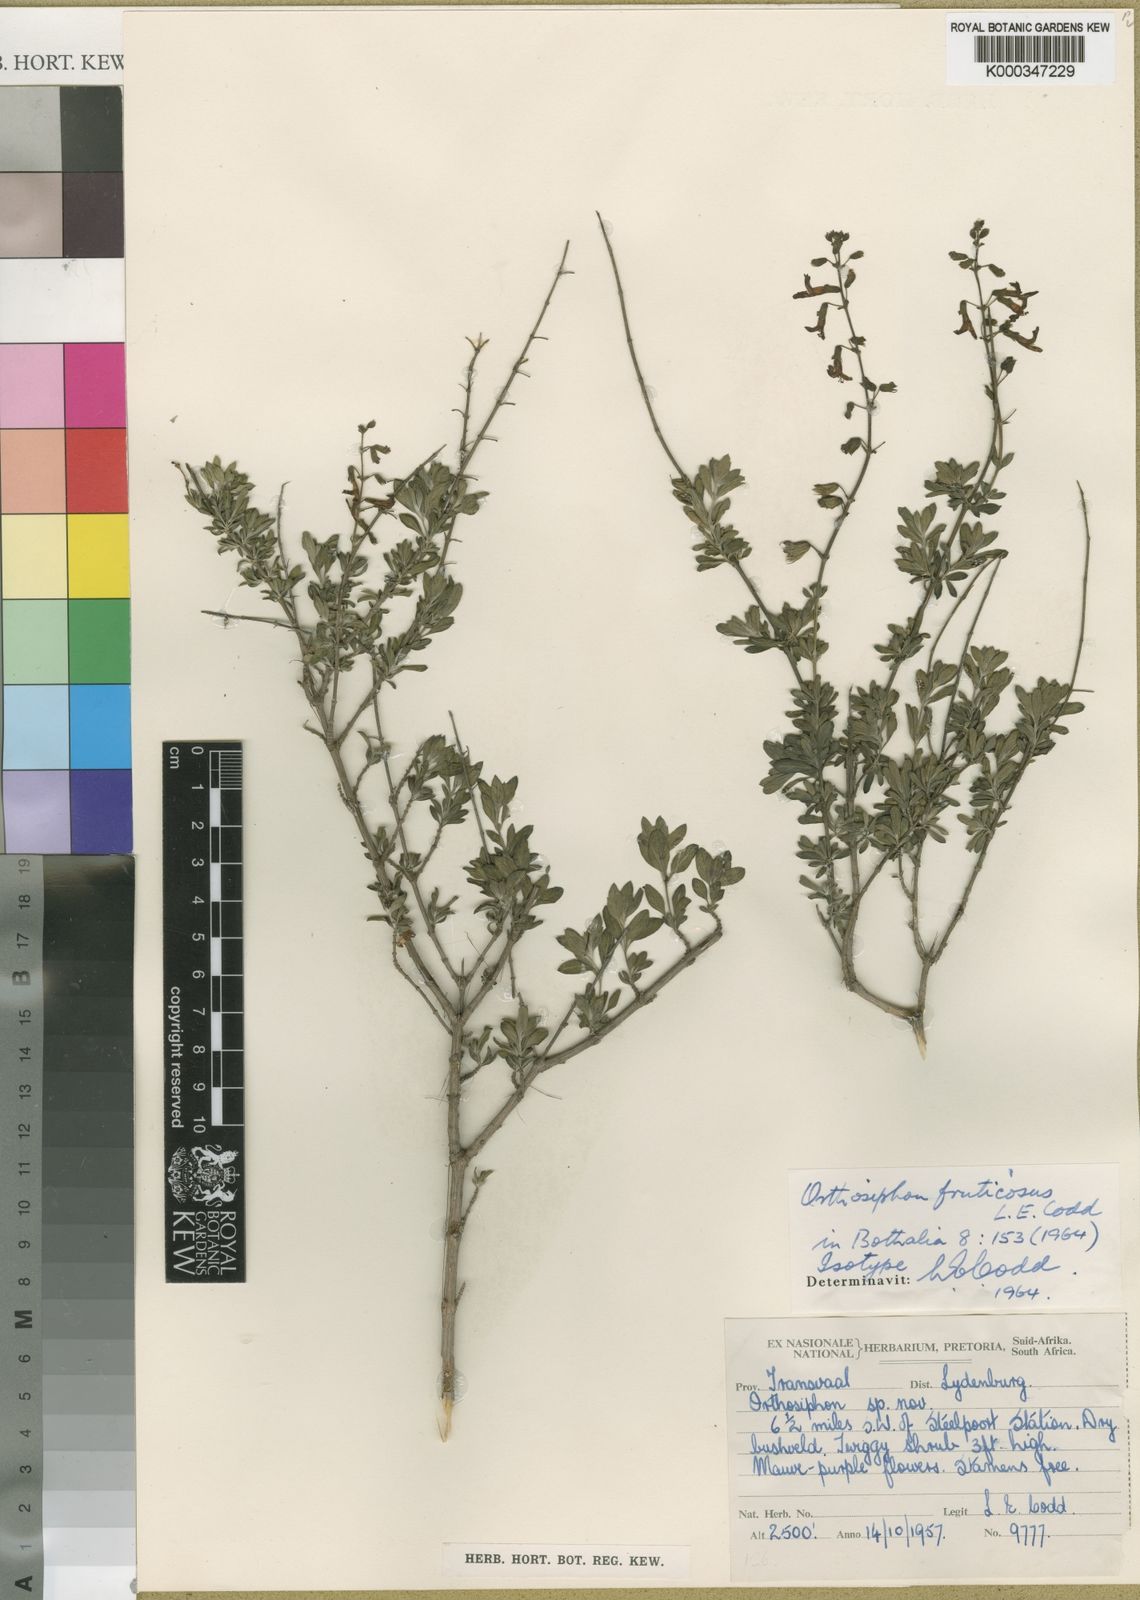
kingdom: Plantae
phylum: Tracheophyta
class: Magnoliopsida
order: Lamiales
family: Lamiaceae
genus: Orthosiphon
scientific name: Orthosiphon fruticosus
